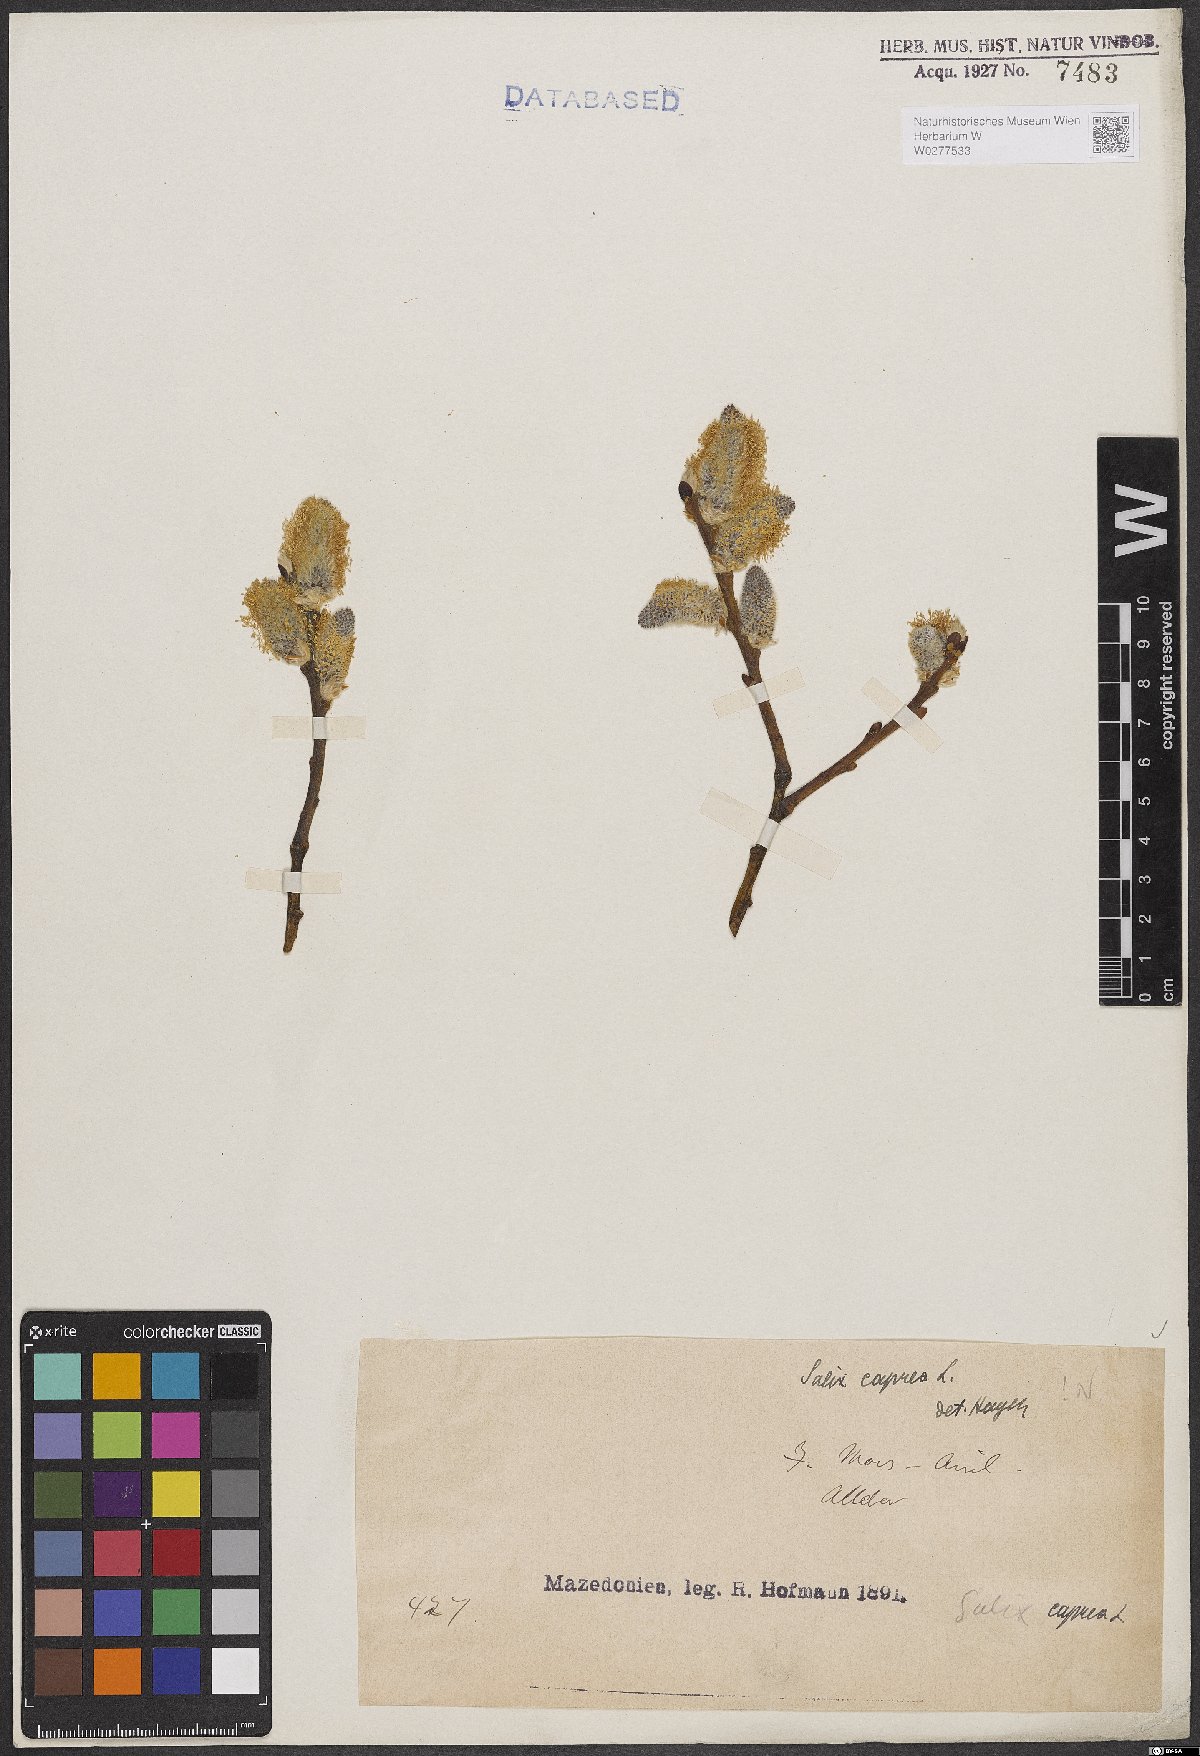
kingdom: Plantae
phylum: Tracheophyta
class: Magnoliopsida
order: Malpighiales
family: Salicaceae
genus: Salix
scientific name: Salix caprea
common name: Goat willow
